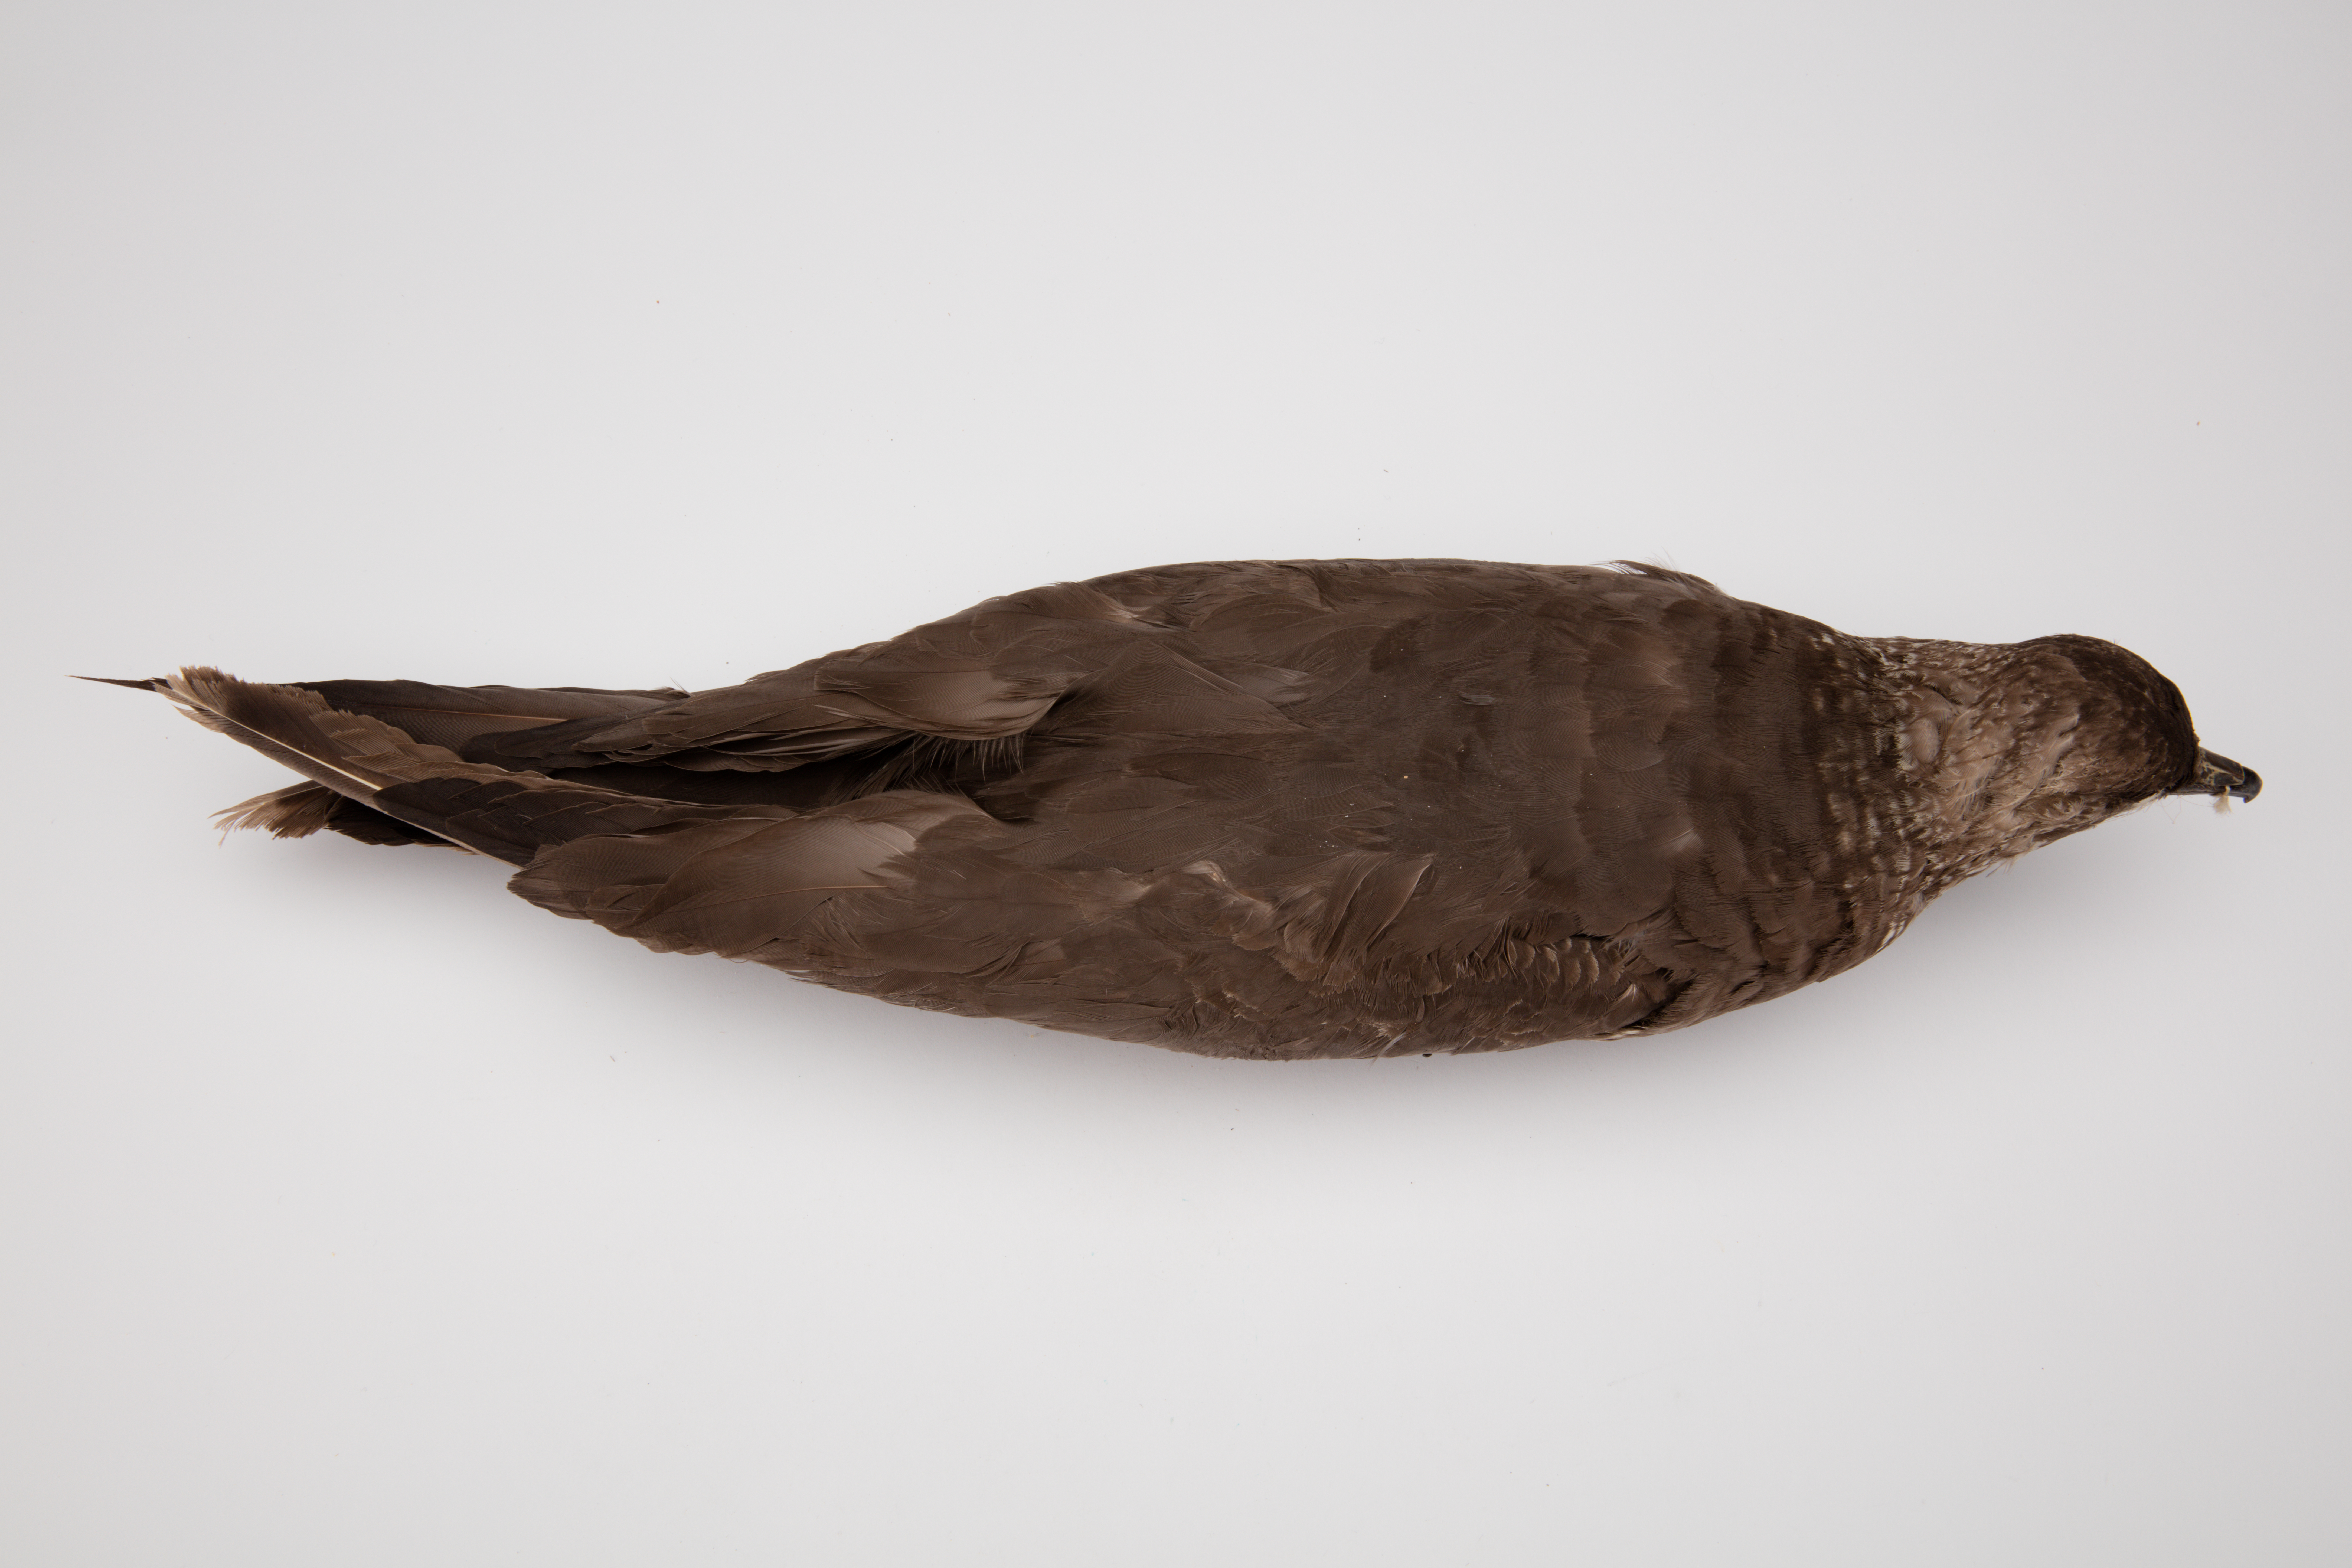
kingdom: Animalia
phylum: Chordata
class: Aves
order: Charadriiformes
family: Stercorariidae
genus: Stercorarius
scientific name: Stercorarius parasiticus
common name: Parasitic jaeger
